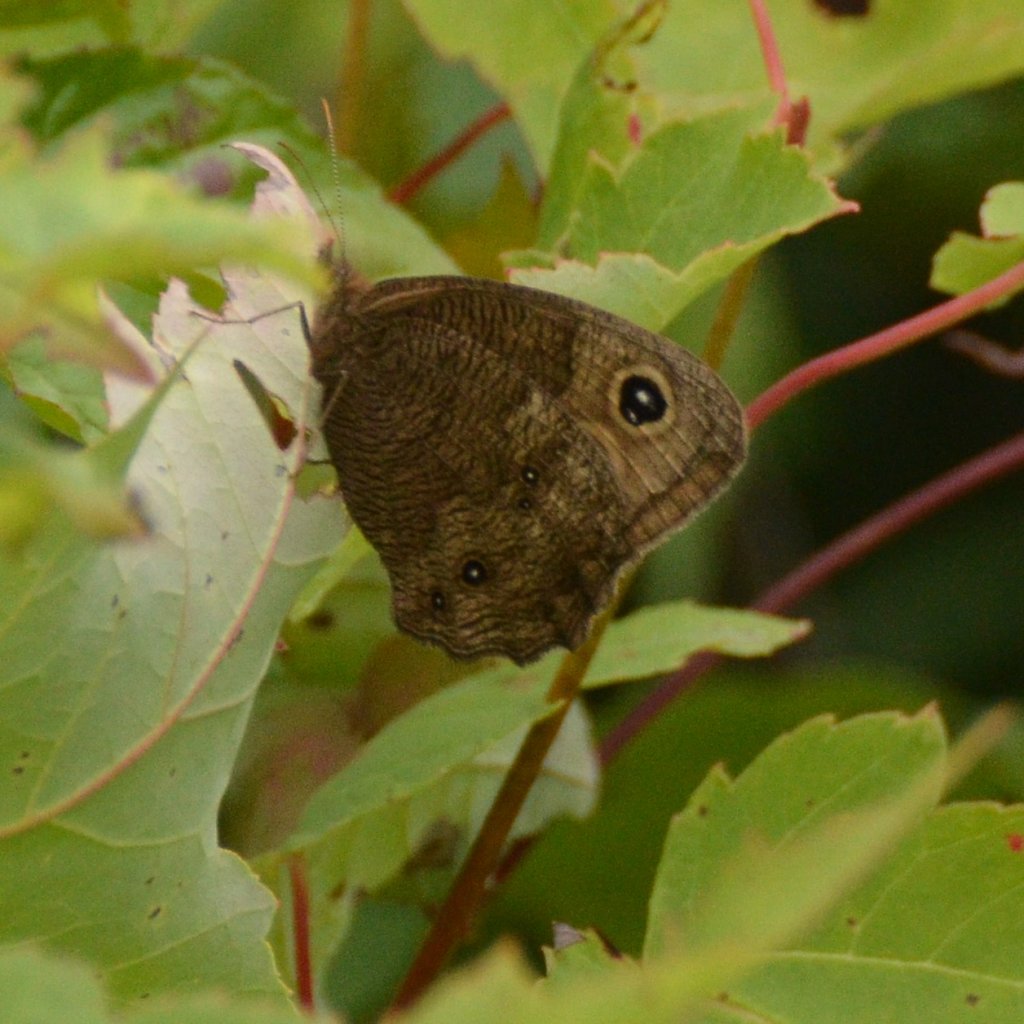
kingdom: Animalia
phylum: Arthropoda
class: Insecta
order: Lepidoptera
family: Nymphalidae
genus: Cercyonis
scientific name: Cercyonis pegala
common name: Common Wood-Nymph
